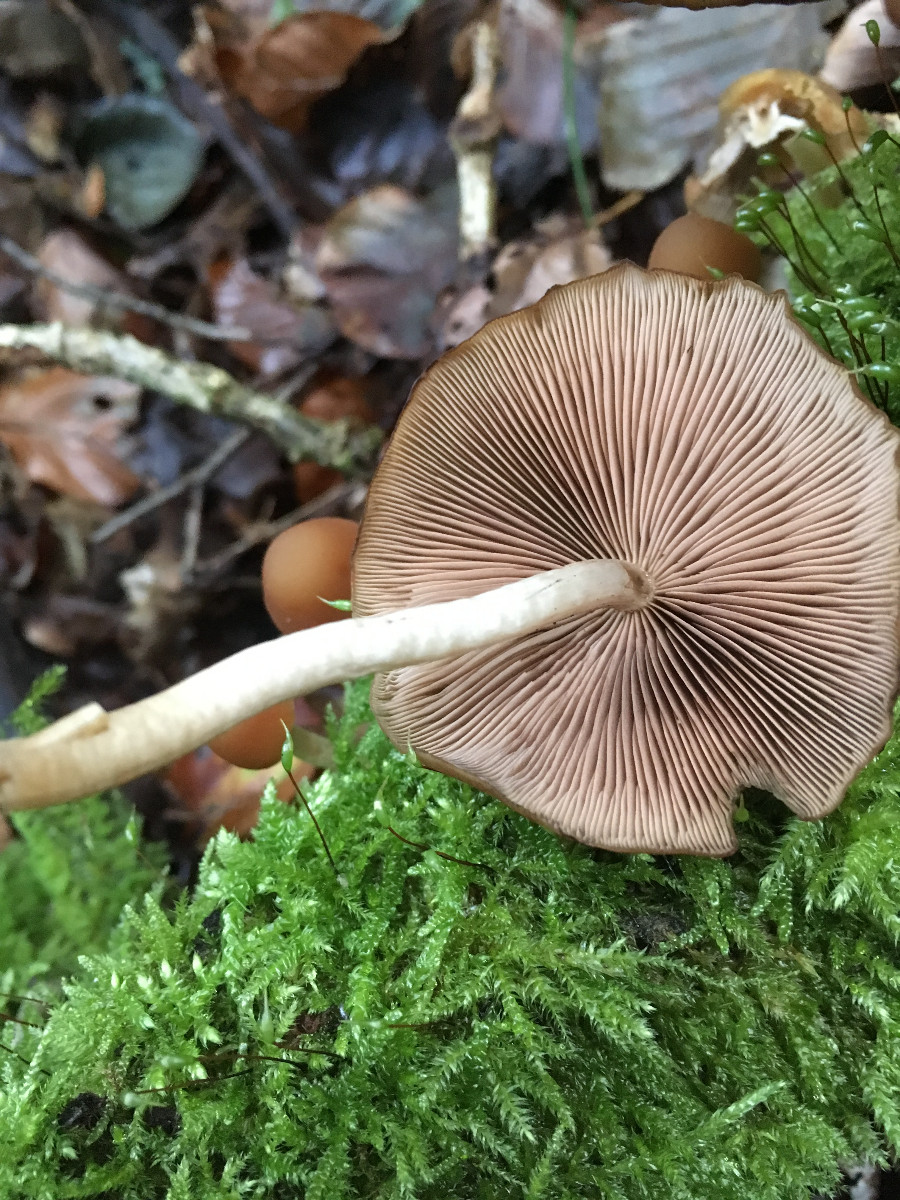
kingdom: Fungi
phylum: Basidiomycota
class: Agaricomycetes
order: Agaricales
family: Psathyrellaceae
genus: Psathyrella
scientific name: Psathyrella piluliformis
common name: lysstokket mørkhat
